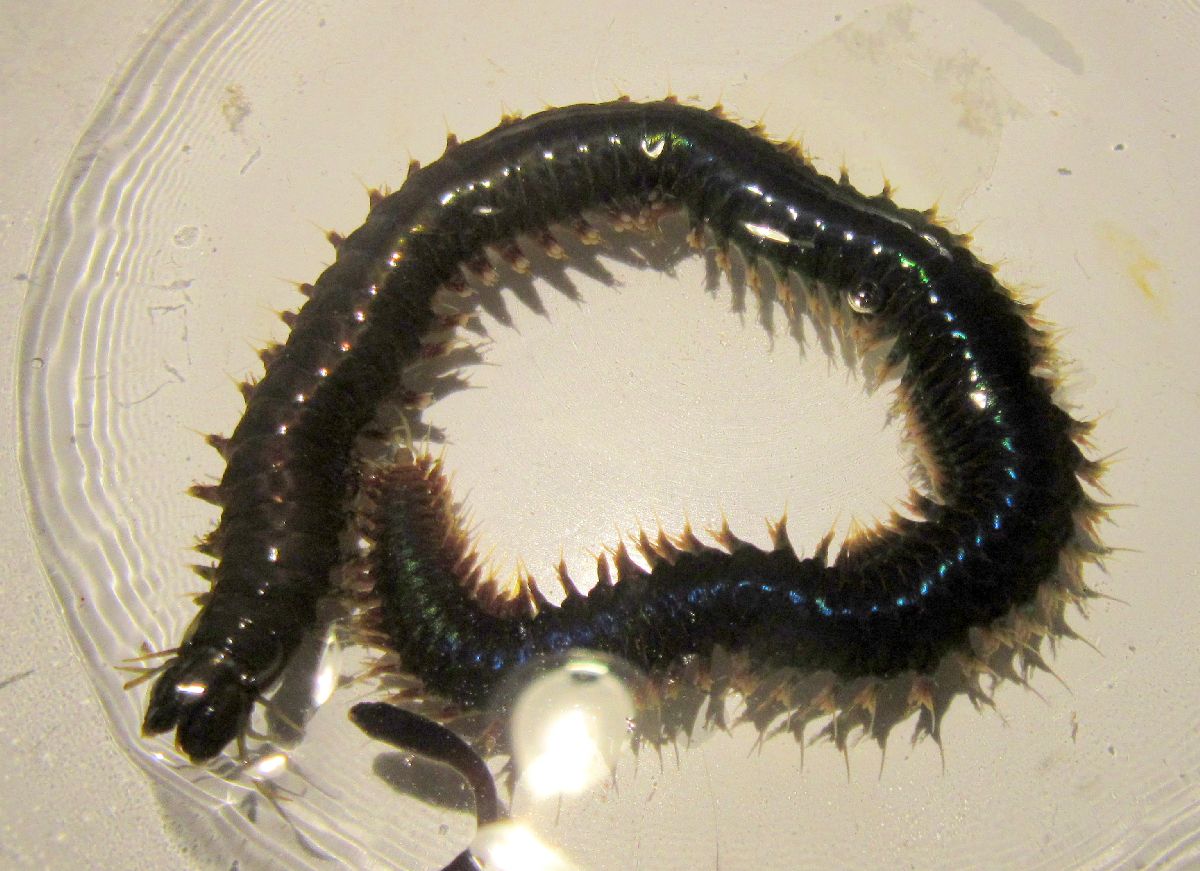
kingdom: Animalia
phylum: Annelida
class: Polychaeta
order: Phyllodocida
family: Nereididae
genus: Nereis
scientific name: Nereis pelagica
